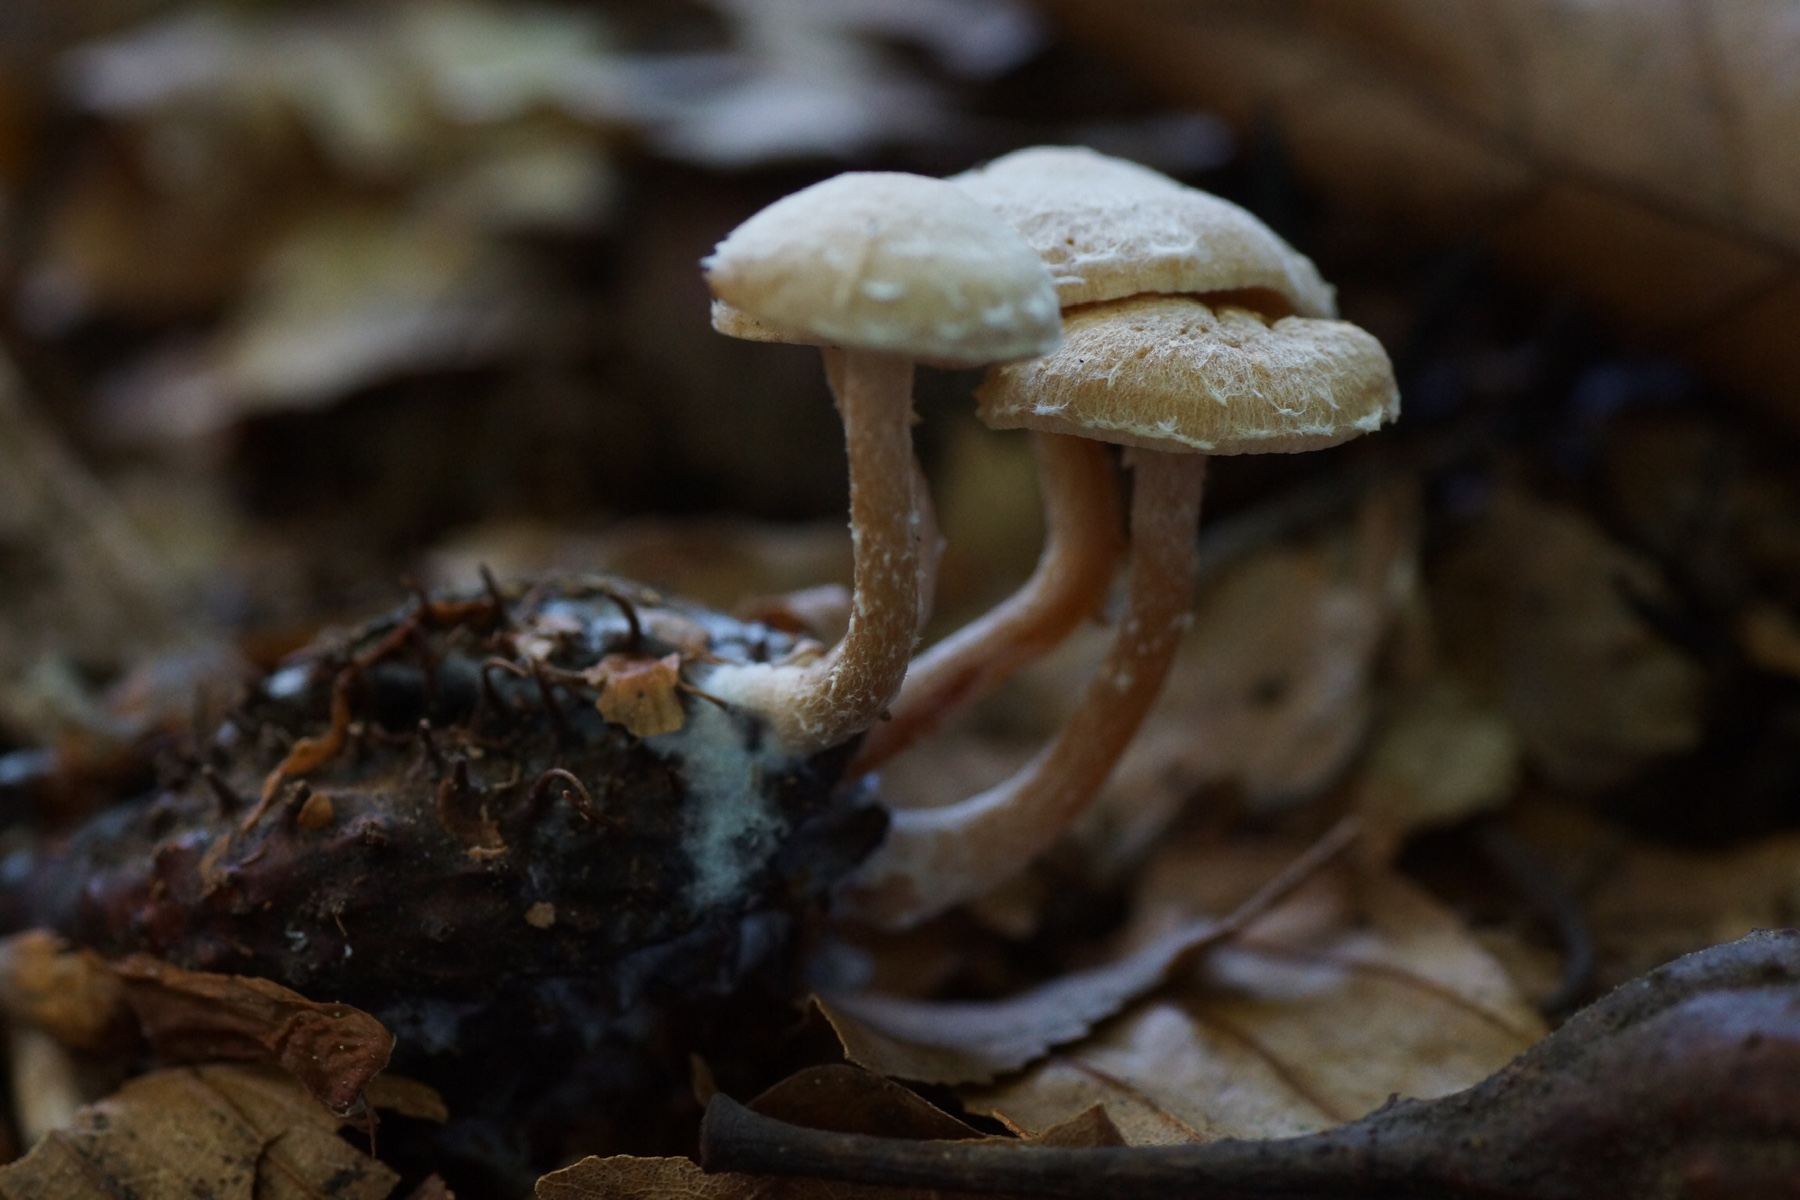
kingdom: Fungi
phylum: Basidiomycota
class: Agaricomycetes
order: Agaricales
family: Tubariaceae
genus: Tubaria
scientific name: Tubaria conspersa
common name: bleg fnughat
